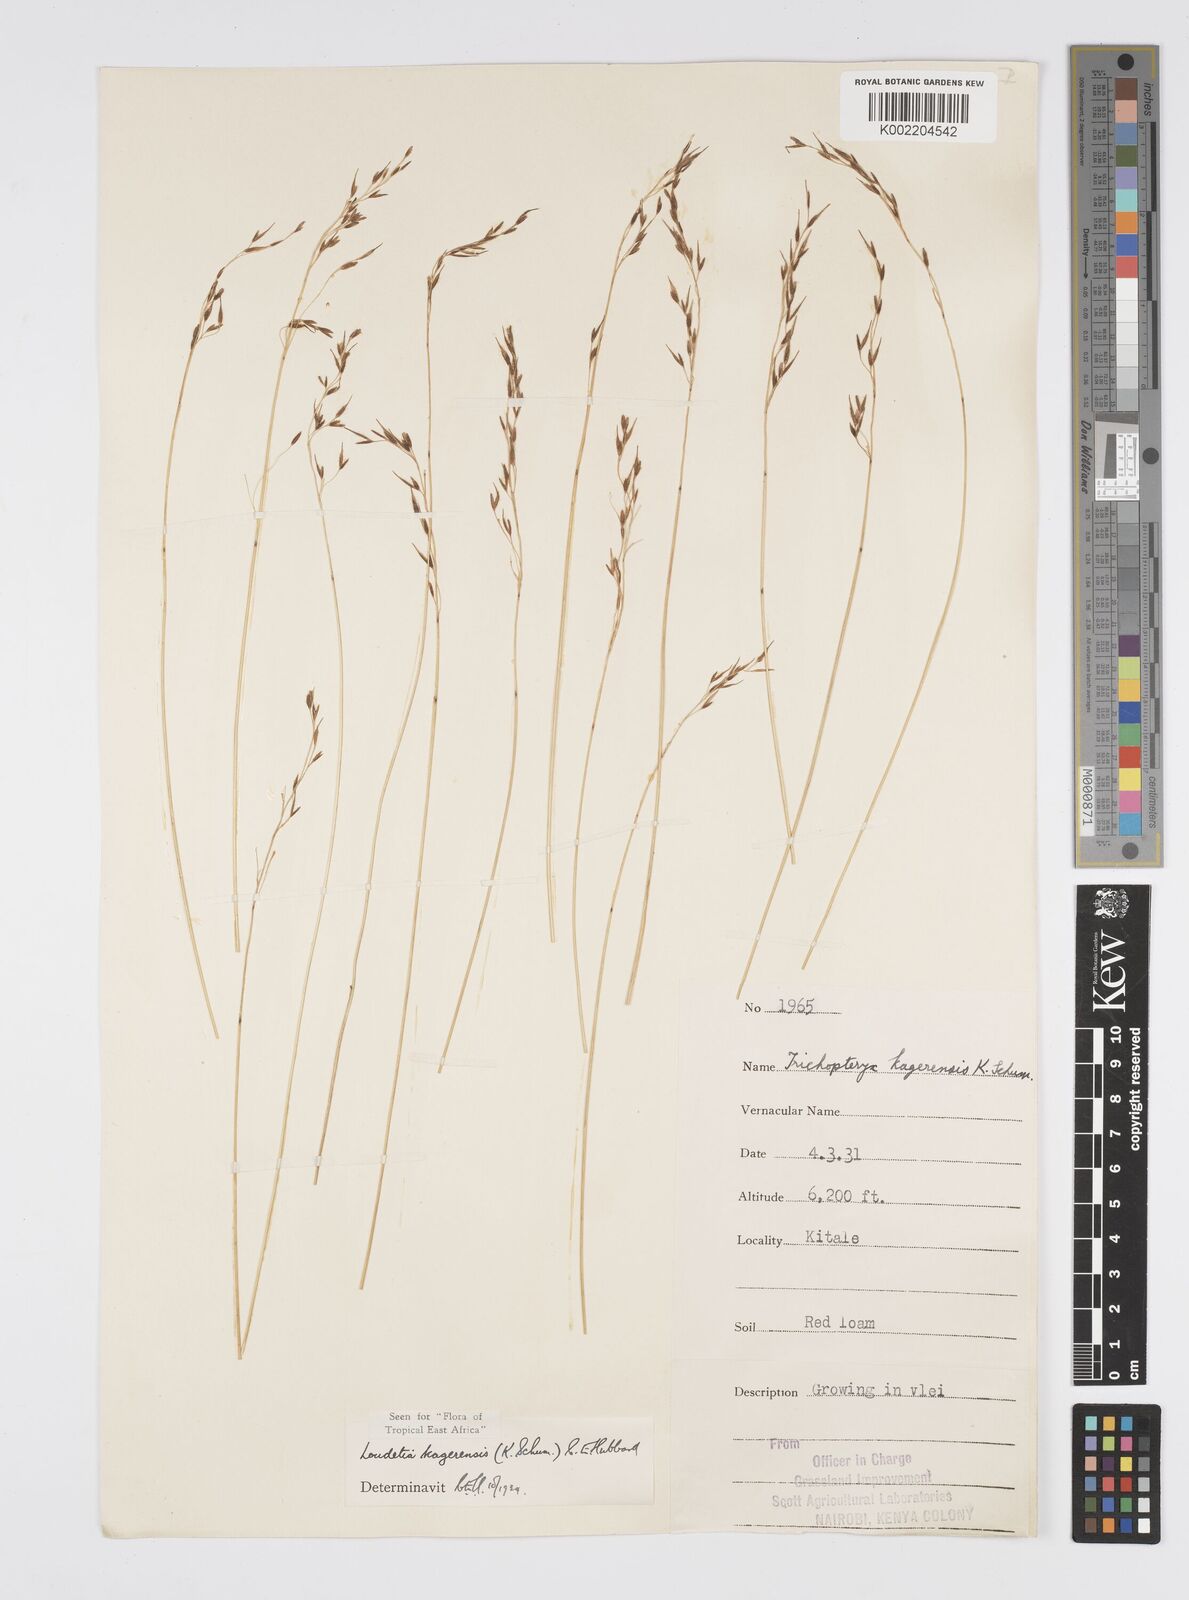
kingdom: Plantae
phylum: Tracheophyta
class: Liliopsida
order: Poales
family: Poaceae
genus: Loudetia
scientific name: Loudetia kagerensis
